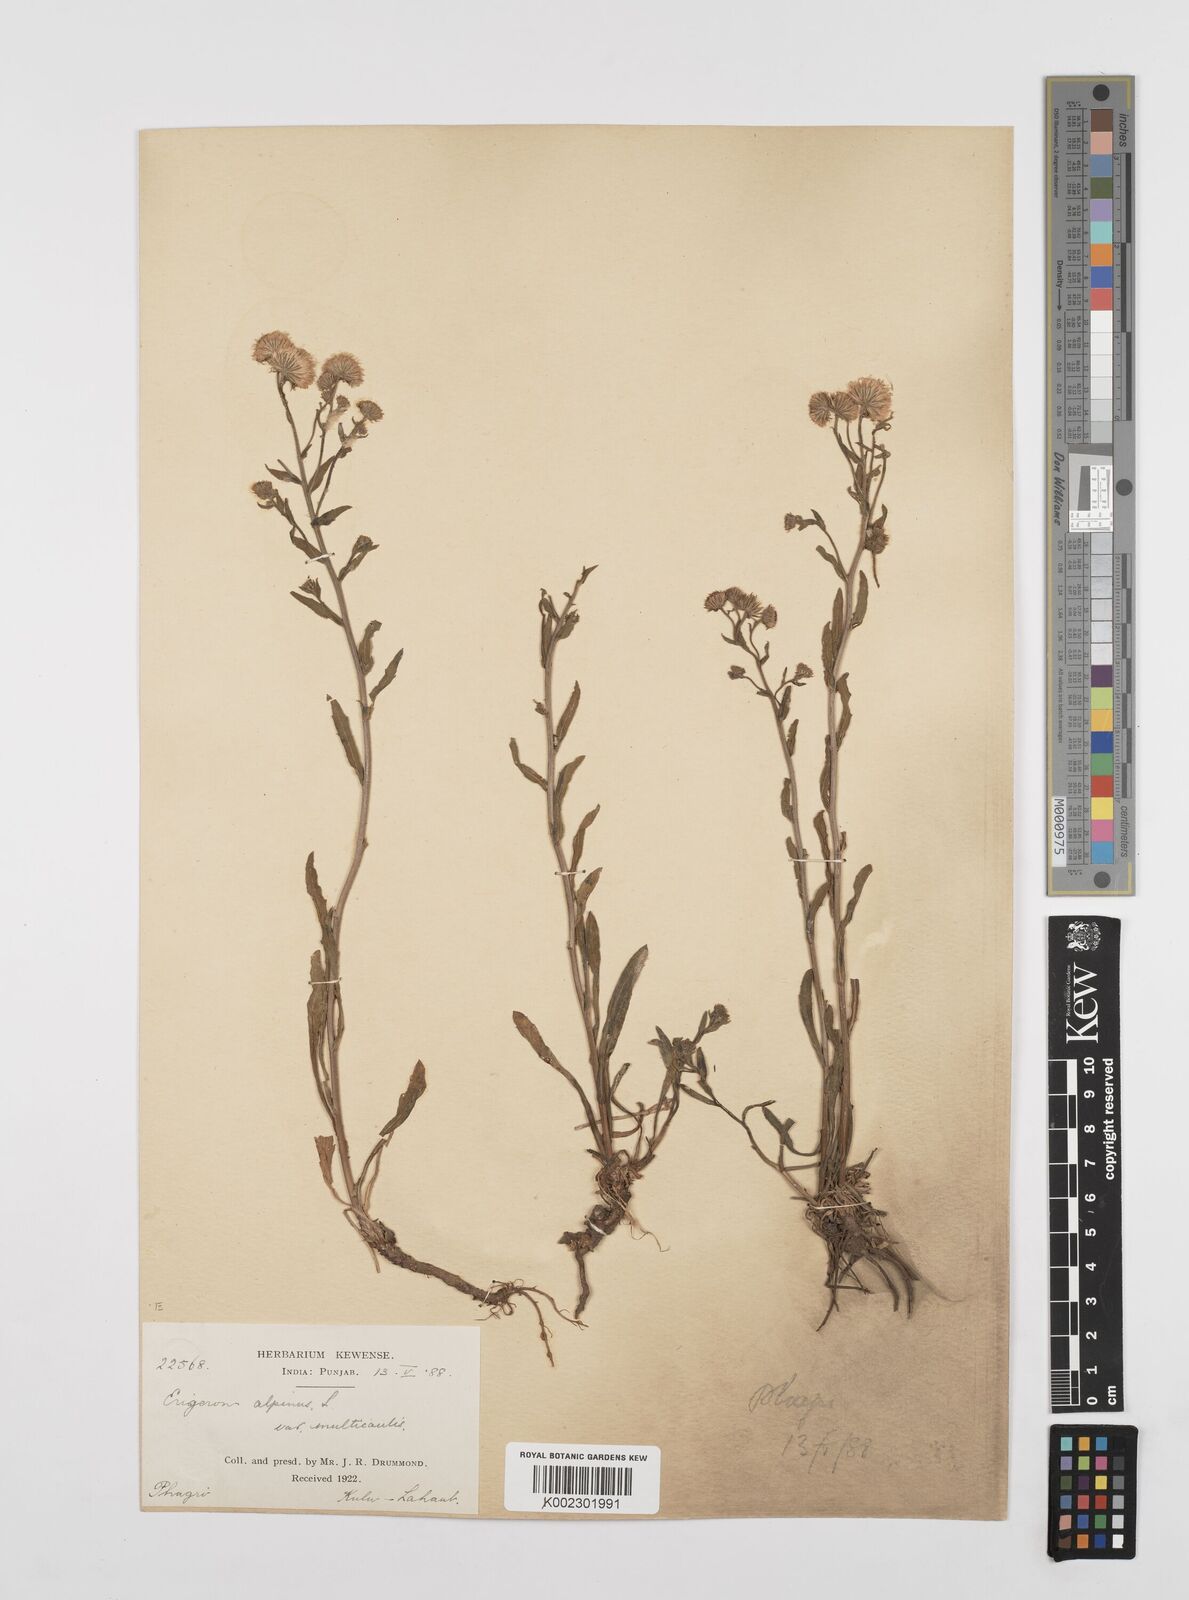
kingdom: Plantae
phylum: Tracheophyta
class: Magnoliopsida
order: Asterales
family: Asteraceae
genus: Erigeron
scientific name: Erigeron alpinus
